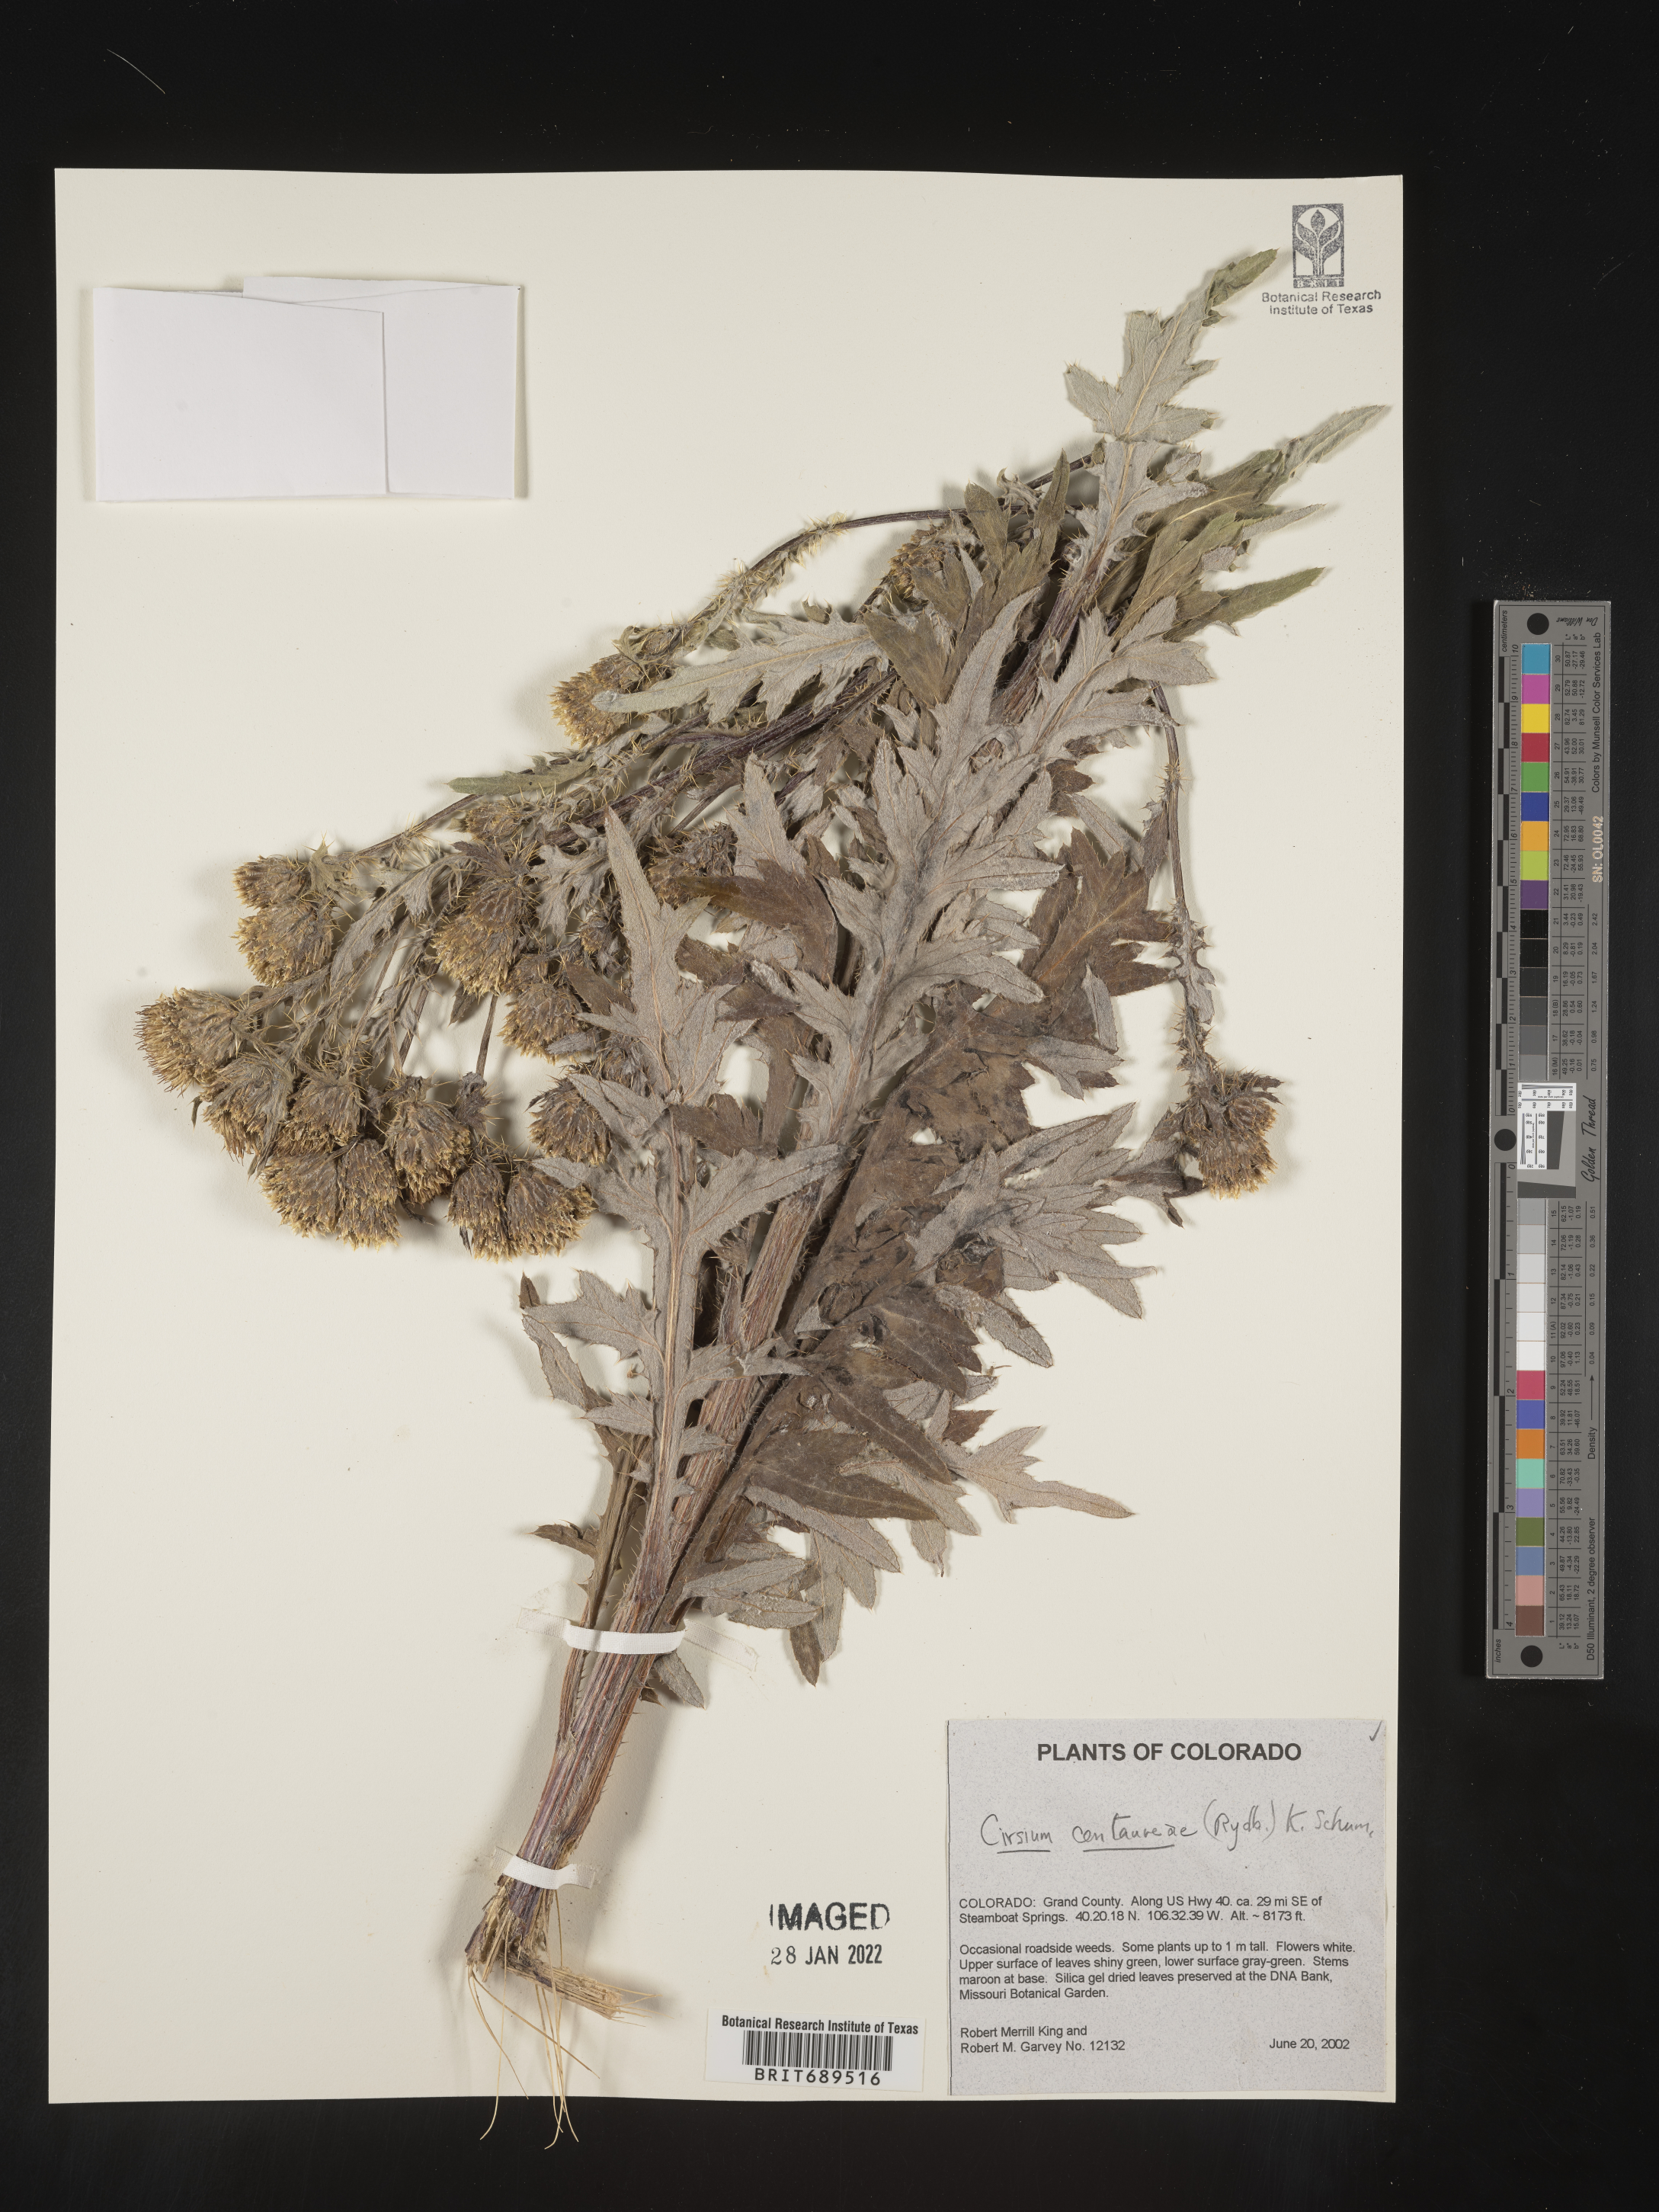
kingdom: Plantae
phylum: Tracheophyta
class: Magnoliopsida
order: Asterales
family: Asteraceae
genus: Cirsium
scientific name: Cirsium centaureae
